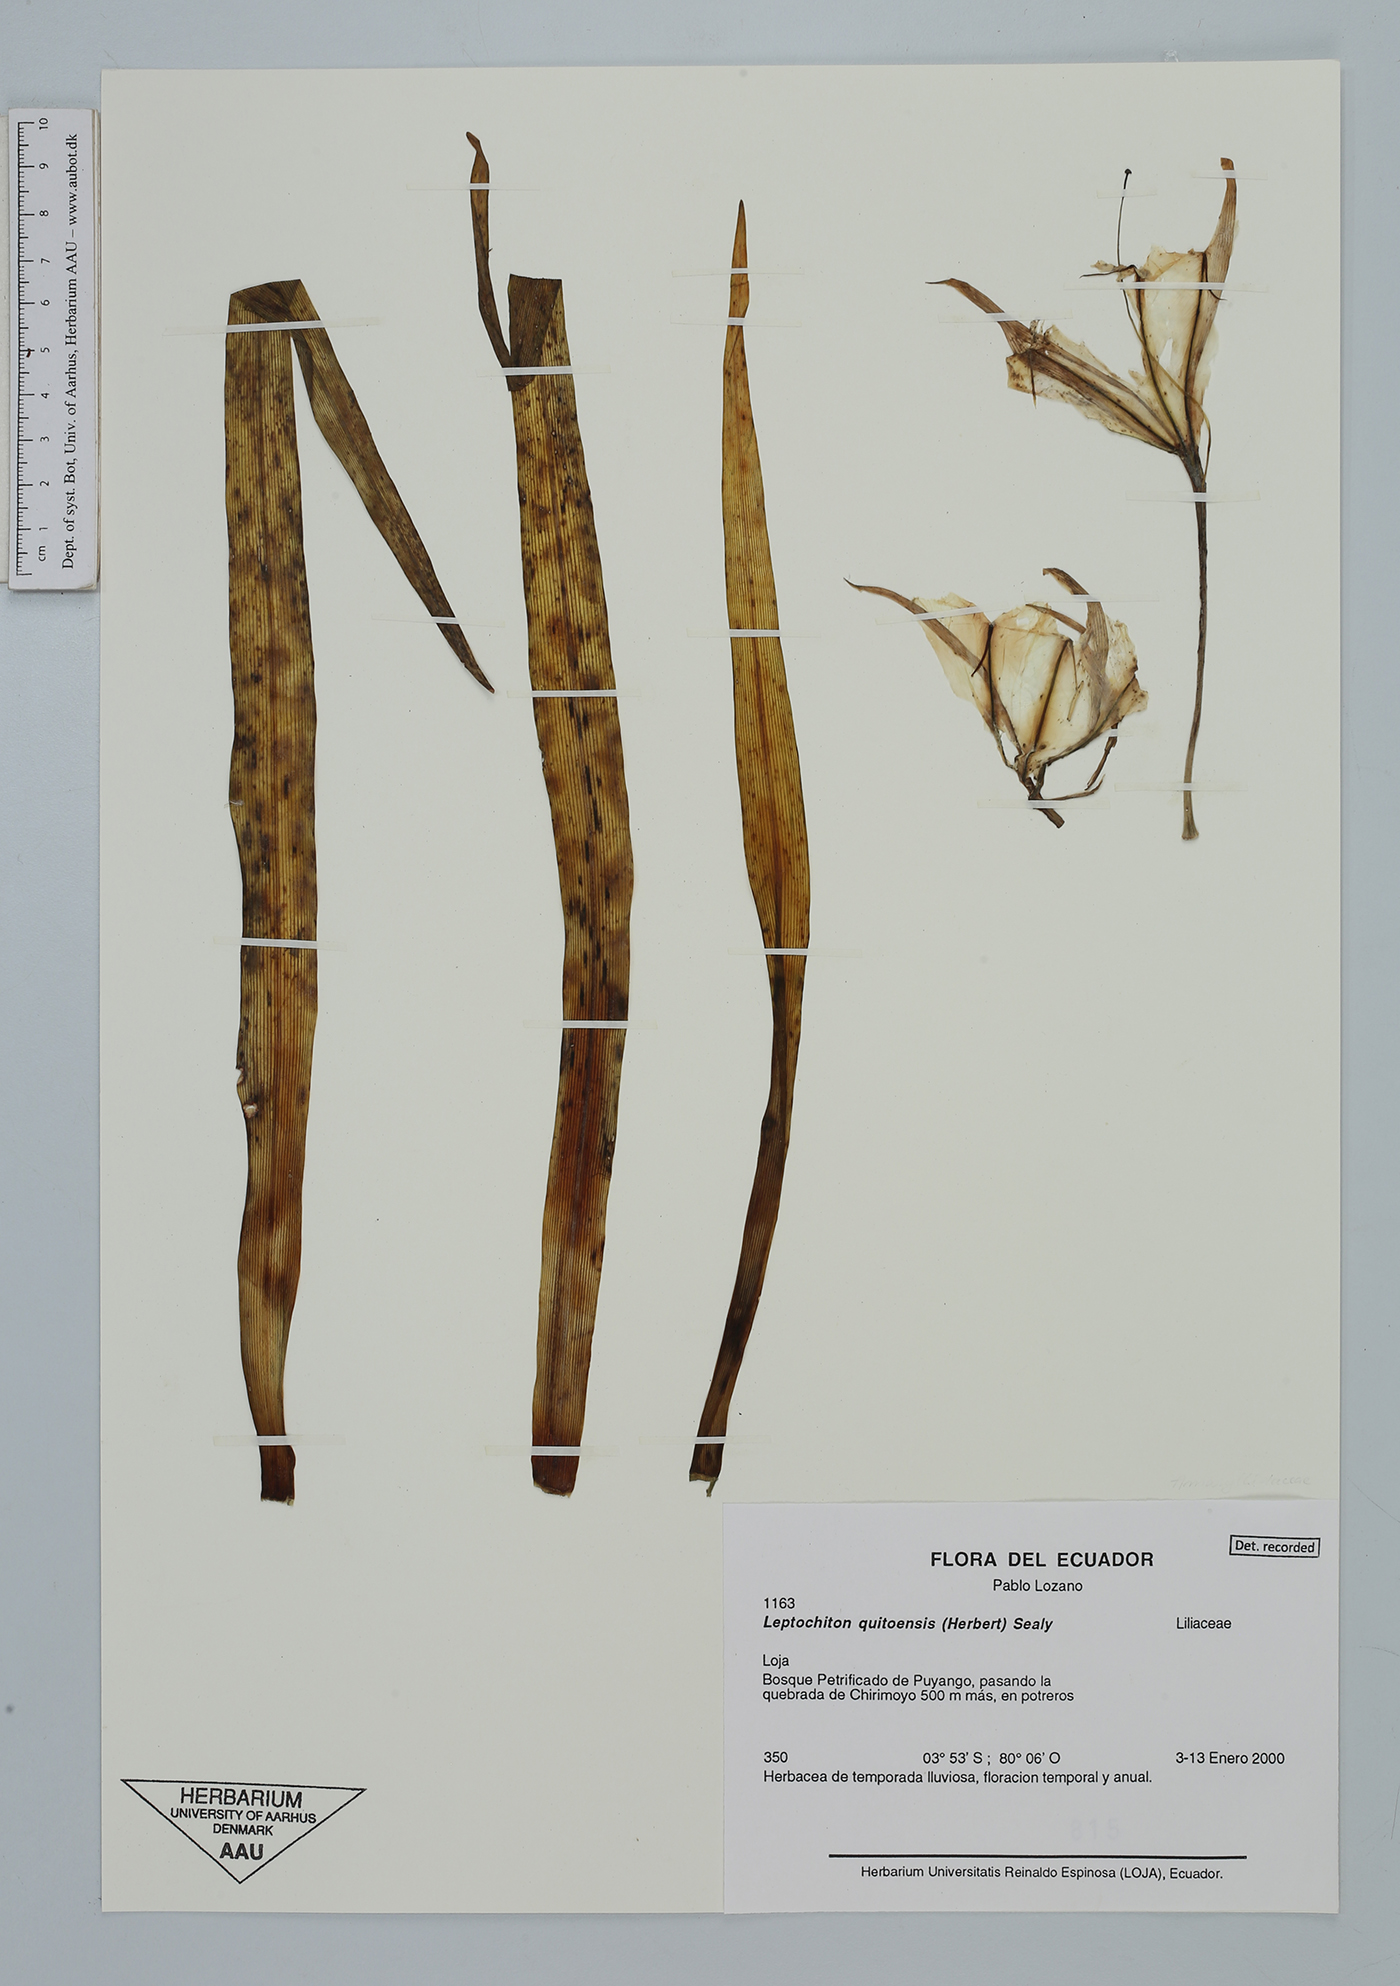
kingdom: Plantae
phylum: Tracheophyta
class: Liliopsida
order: Asparagales
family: Amaryllidaceae
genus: Leptochiton
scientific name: Leptochiton quitoensis
